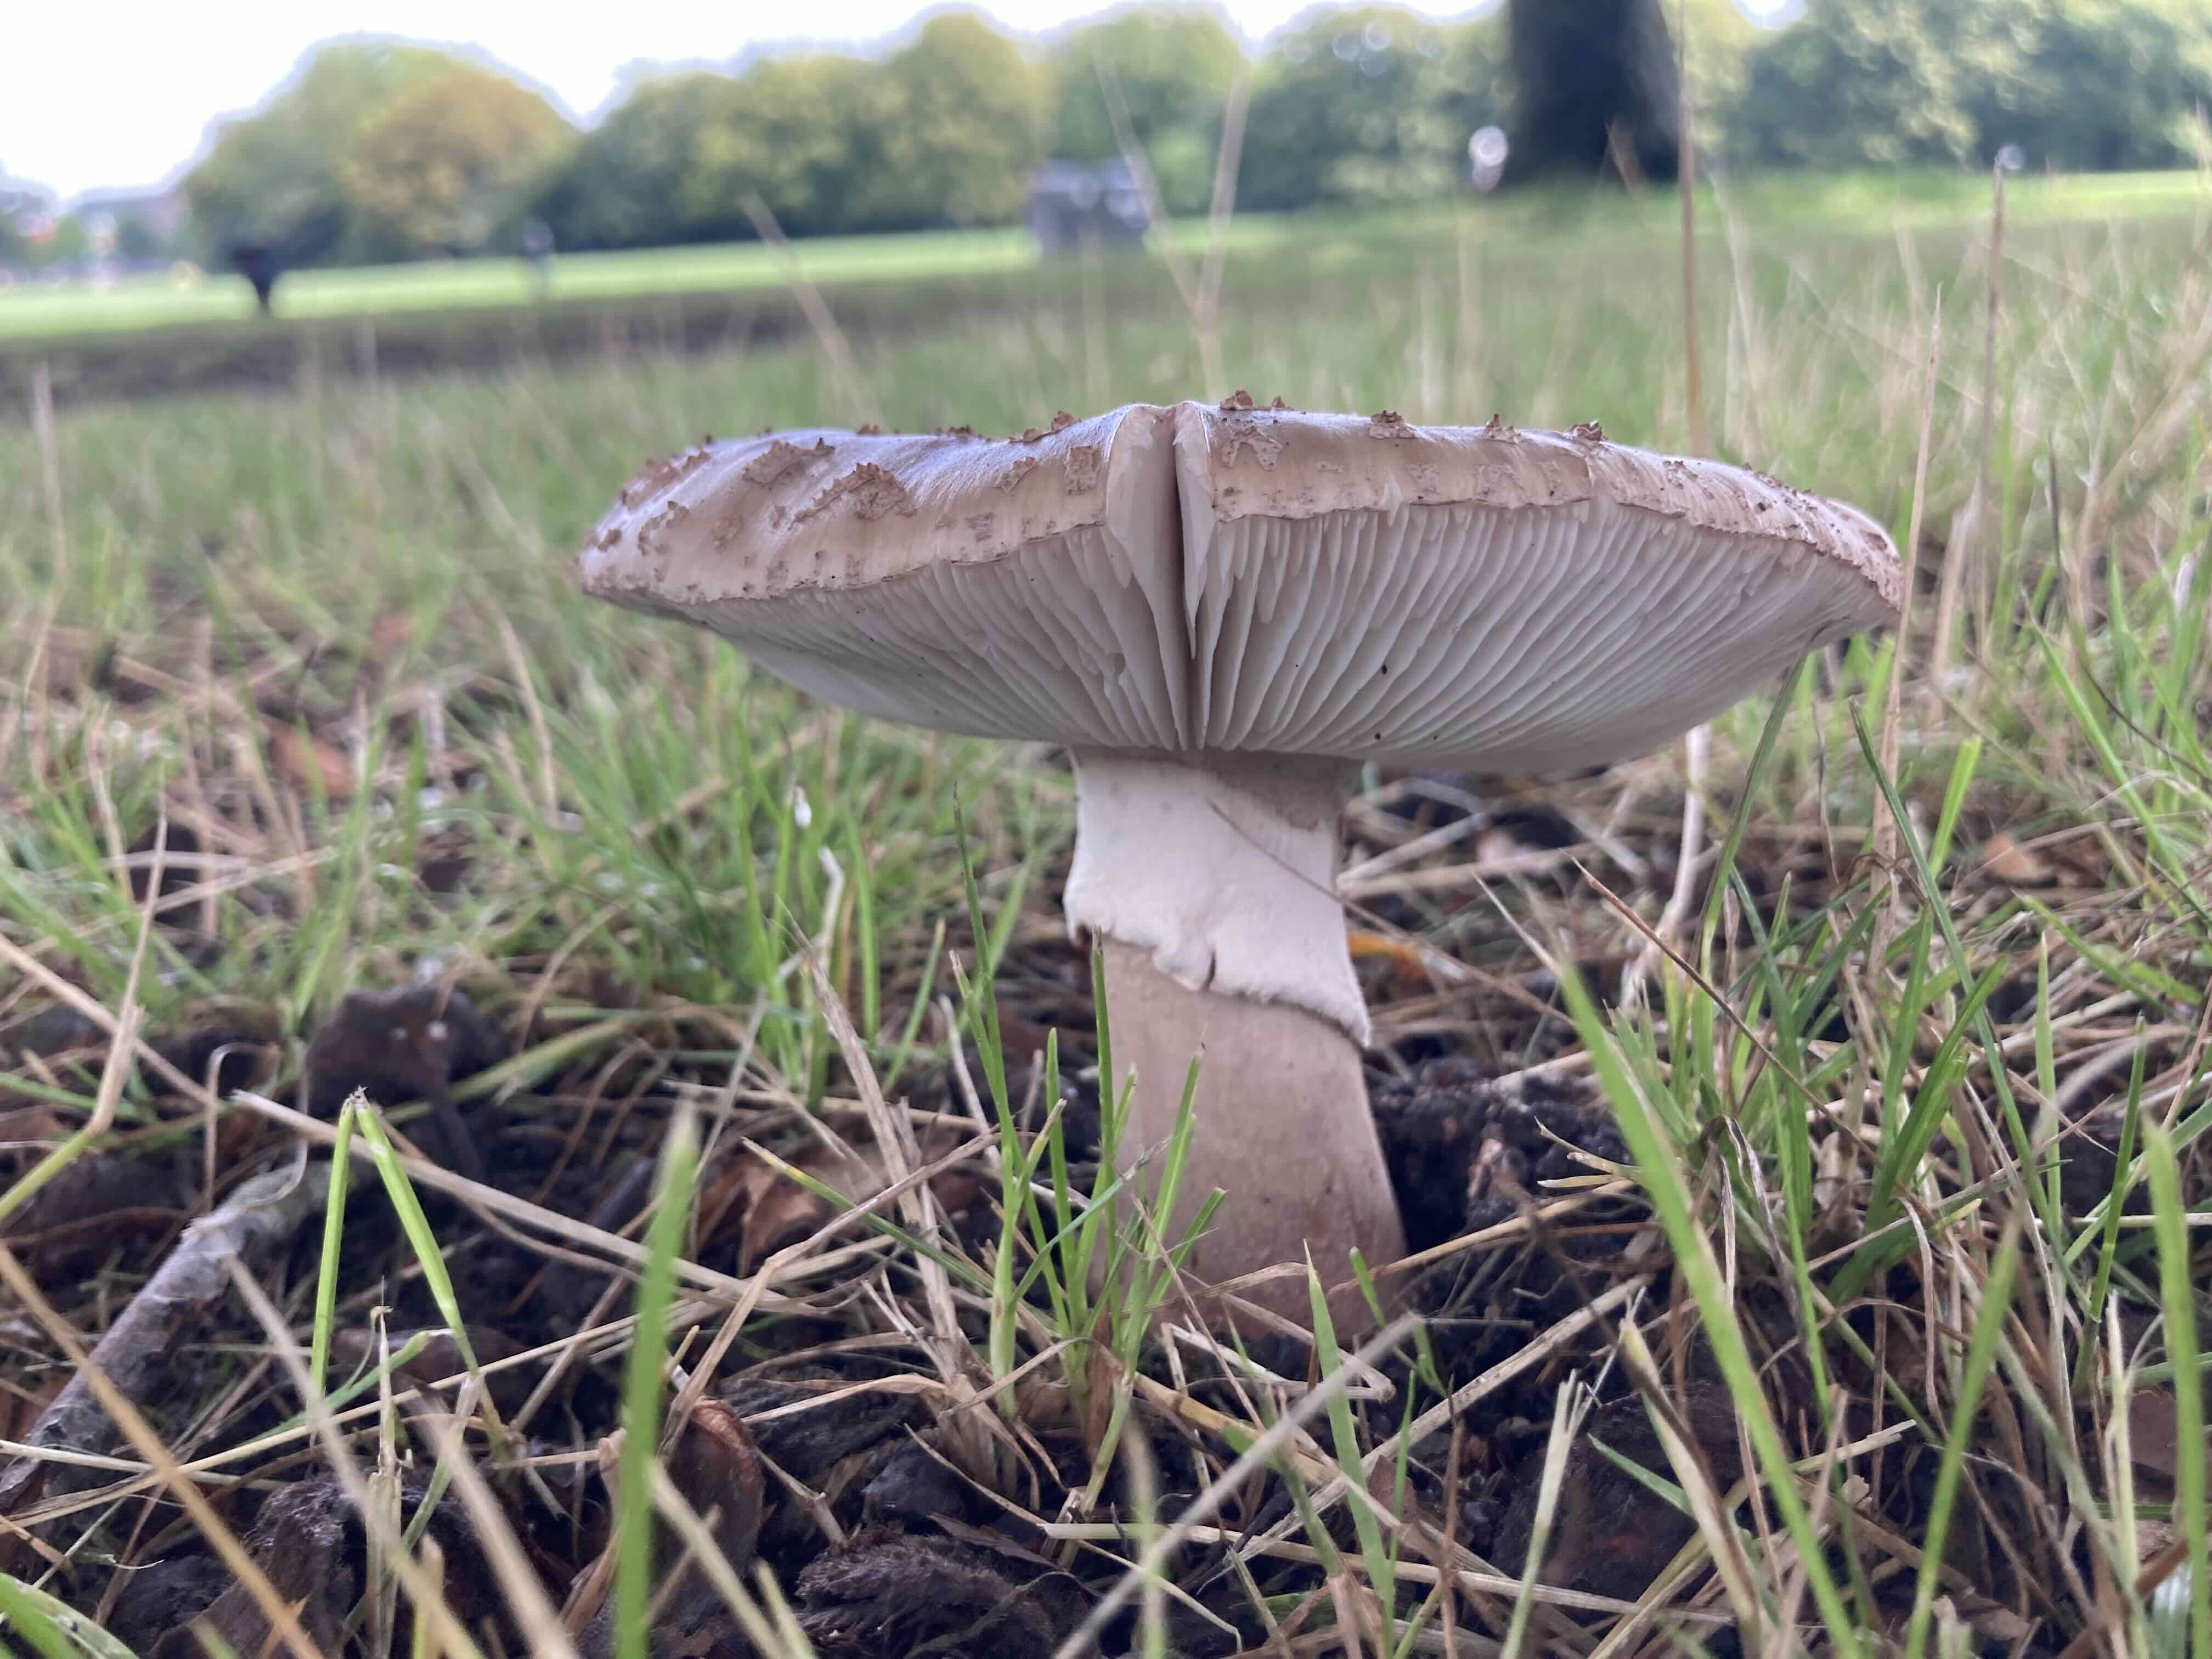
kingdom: Fungi
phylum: Basidiomycota
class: Agaricomycetes
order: Agaricales
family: Amanitaceae
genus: Amanita
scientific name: Amanita rubescens
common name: rødmende fluesvamp
